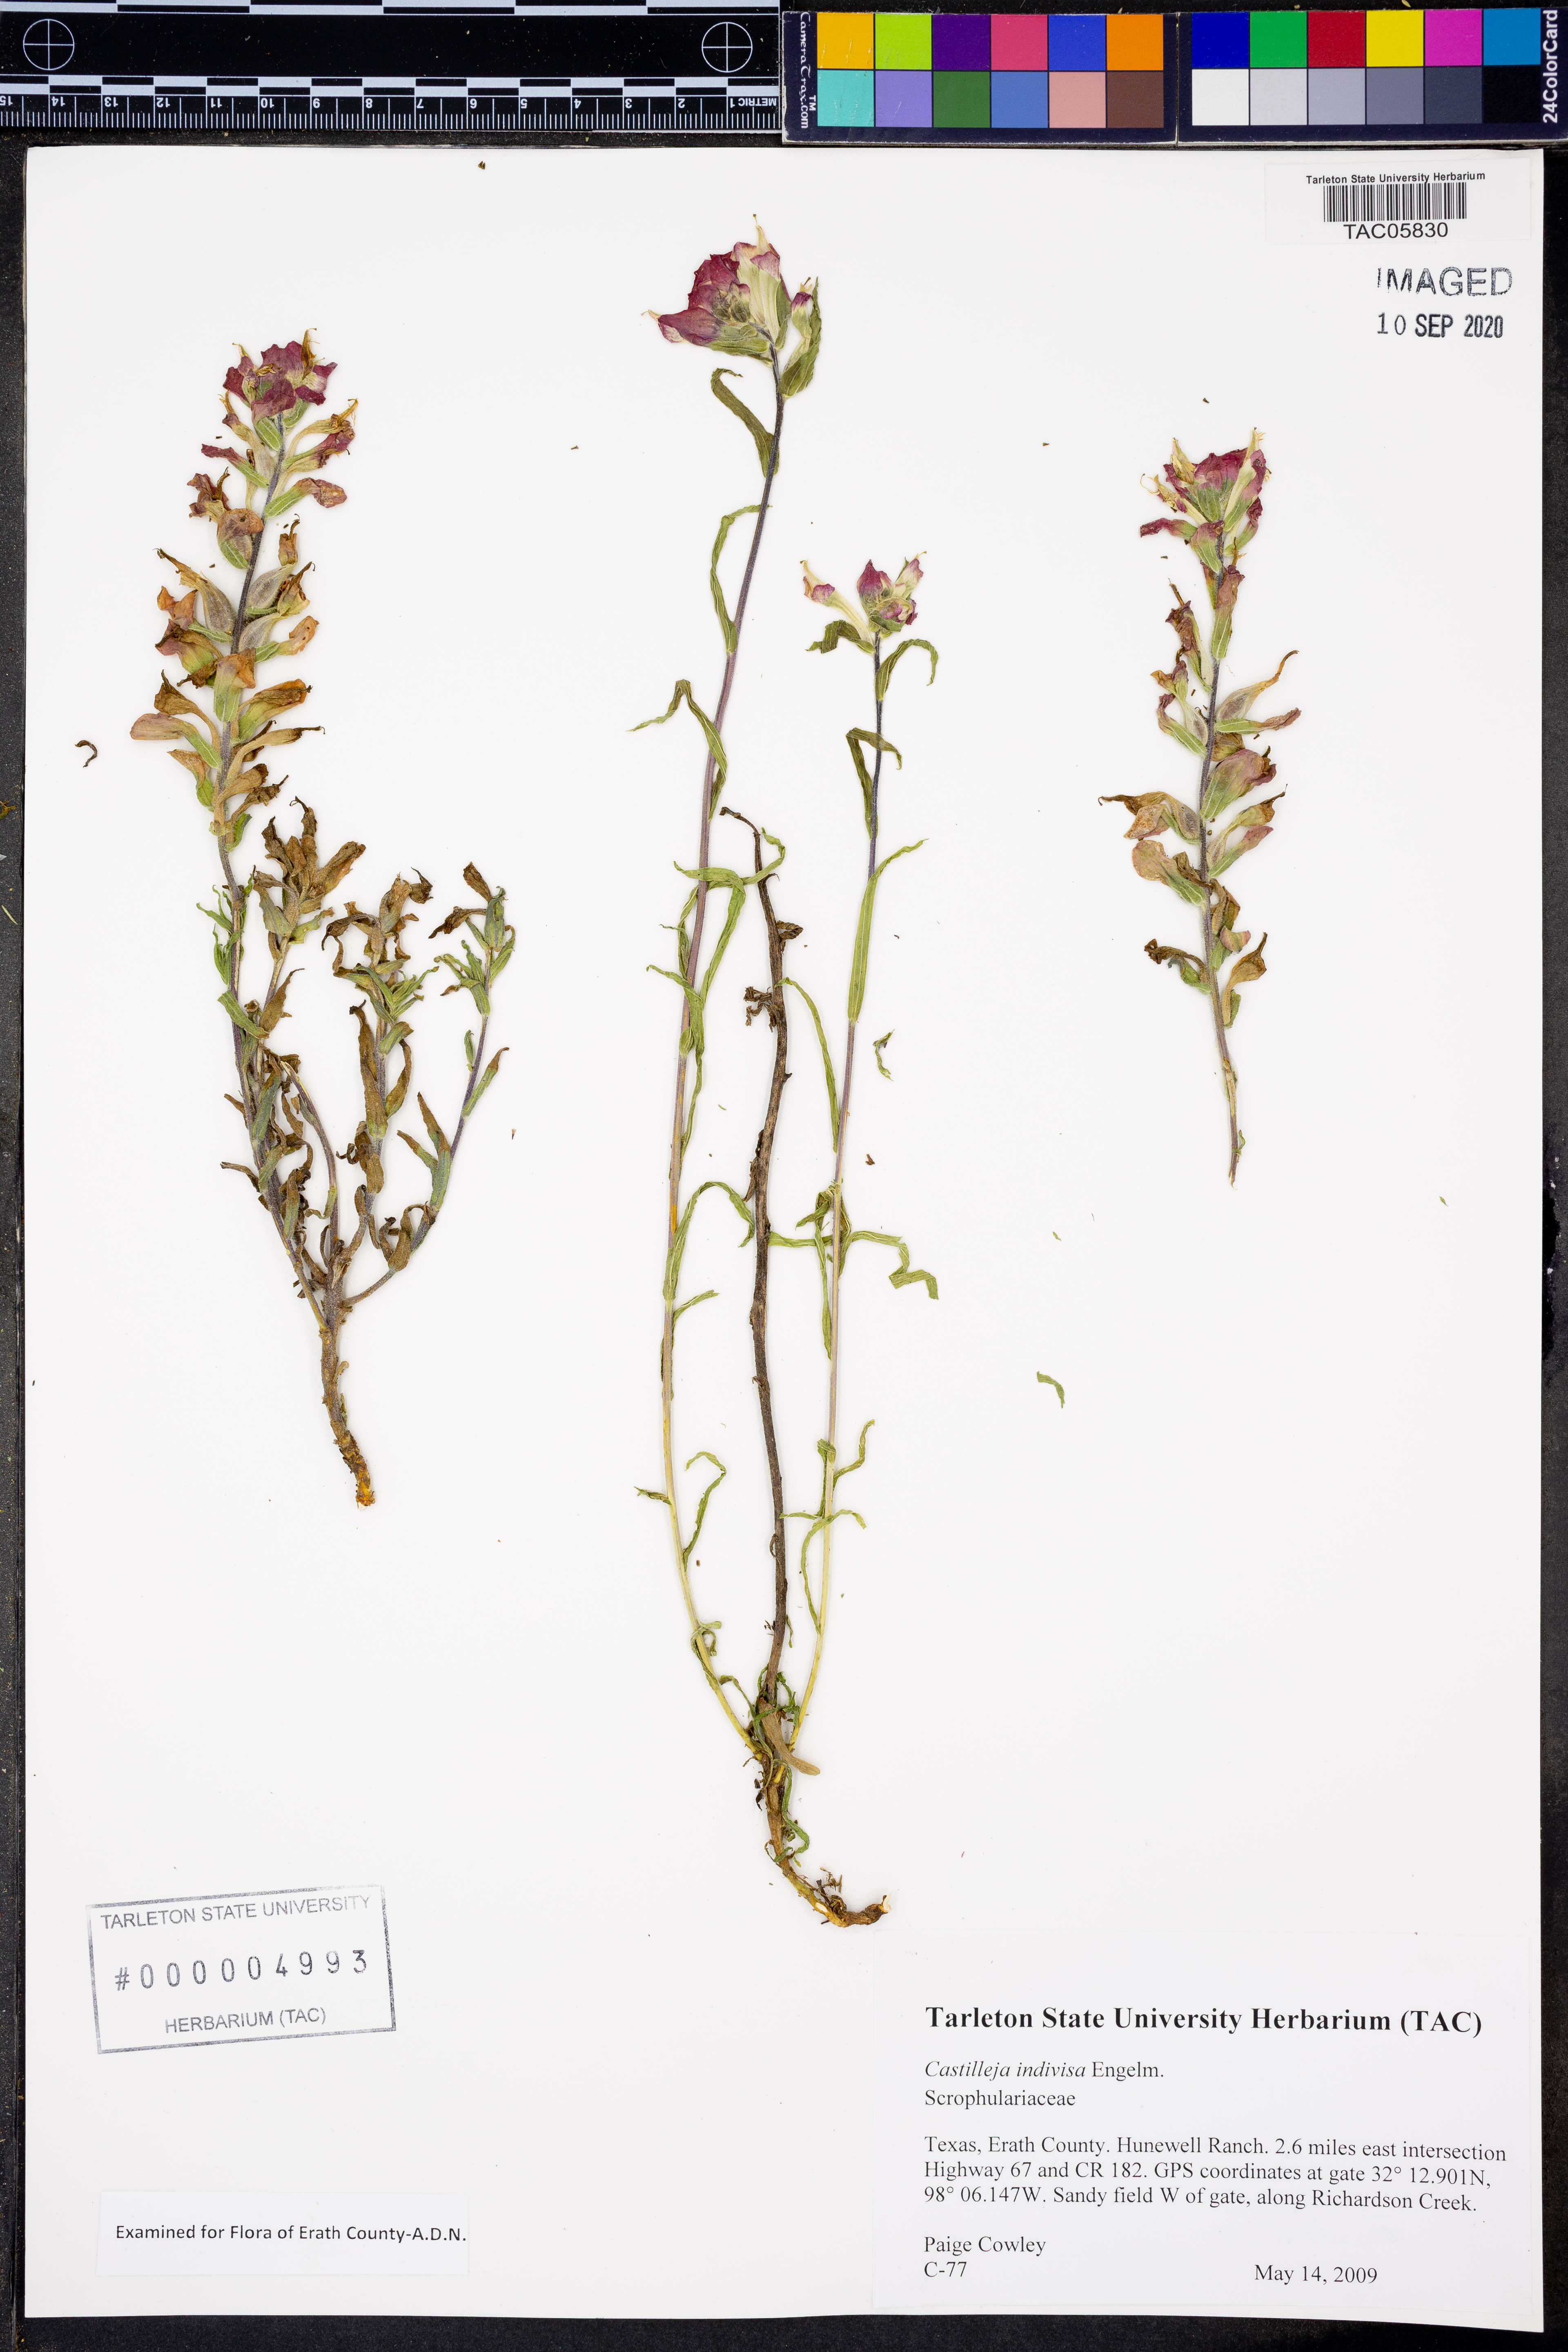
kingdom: Plantae
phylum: Tracheophyta
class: Magnoliopsida
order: Lamiales
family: Orobanchaceae
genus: Castilleja
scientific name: Castilleja indivisa
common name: Texas paintbrush
